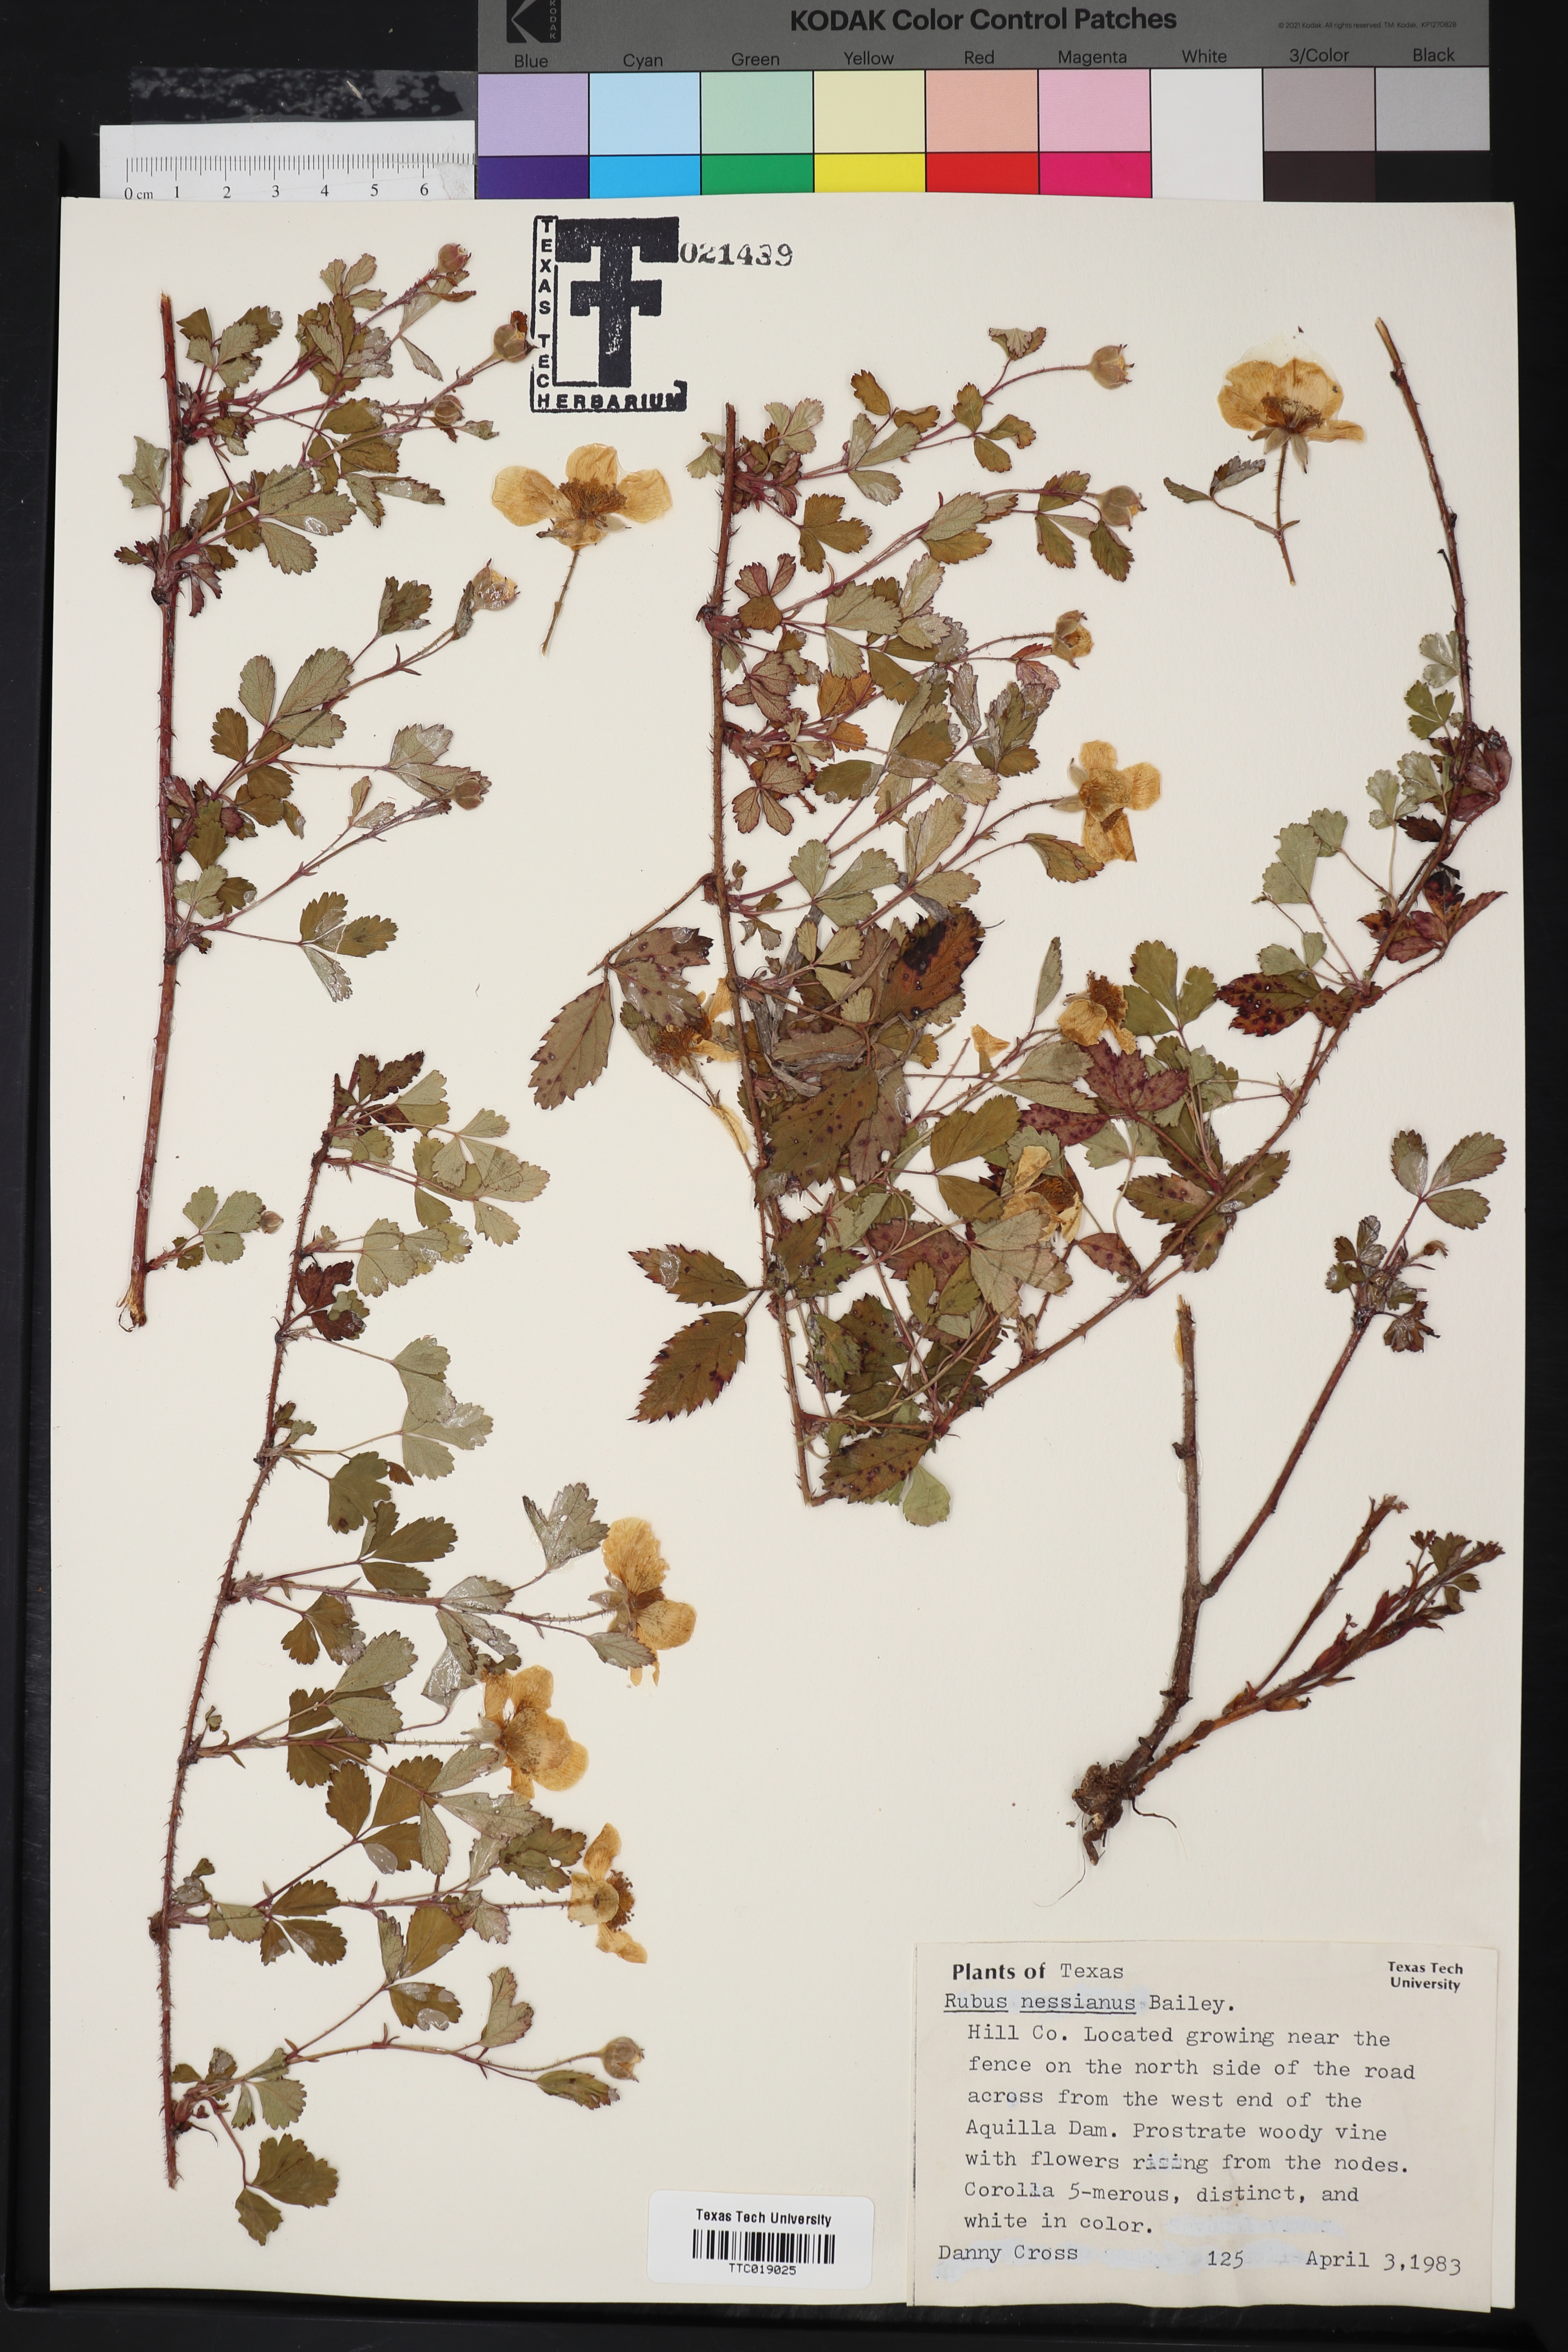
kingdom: Plantae
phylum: Tracheophyta
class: Magnoliopsida
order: Rosales
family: Rosaceae
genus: Rubus
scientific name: Rubus lucidus
